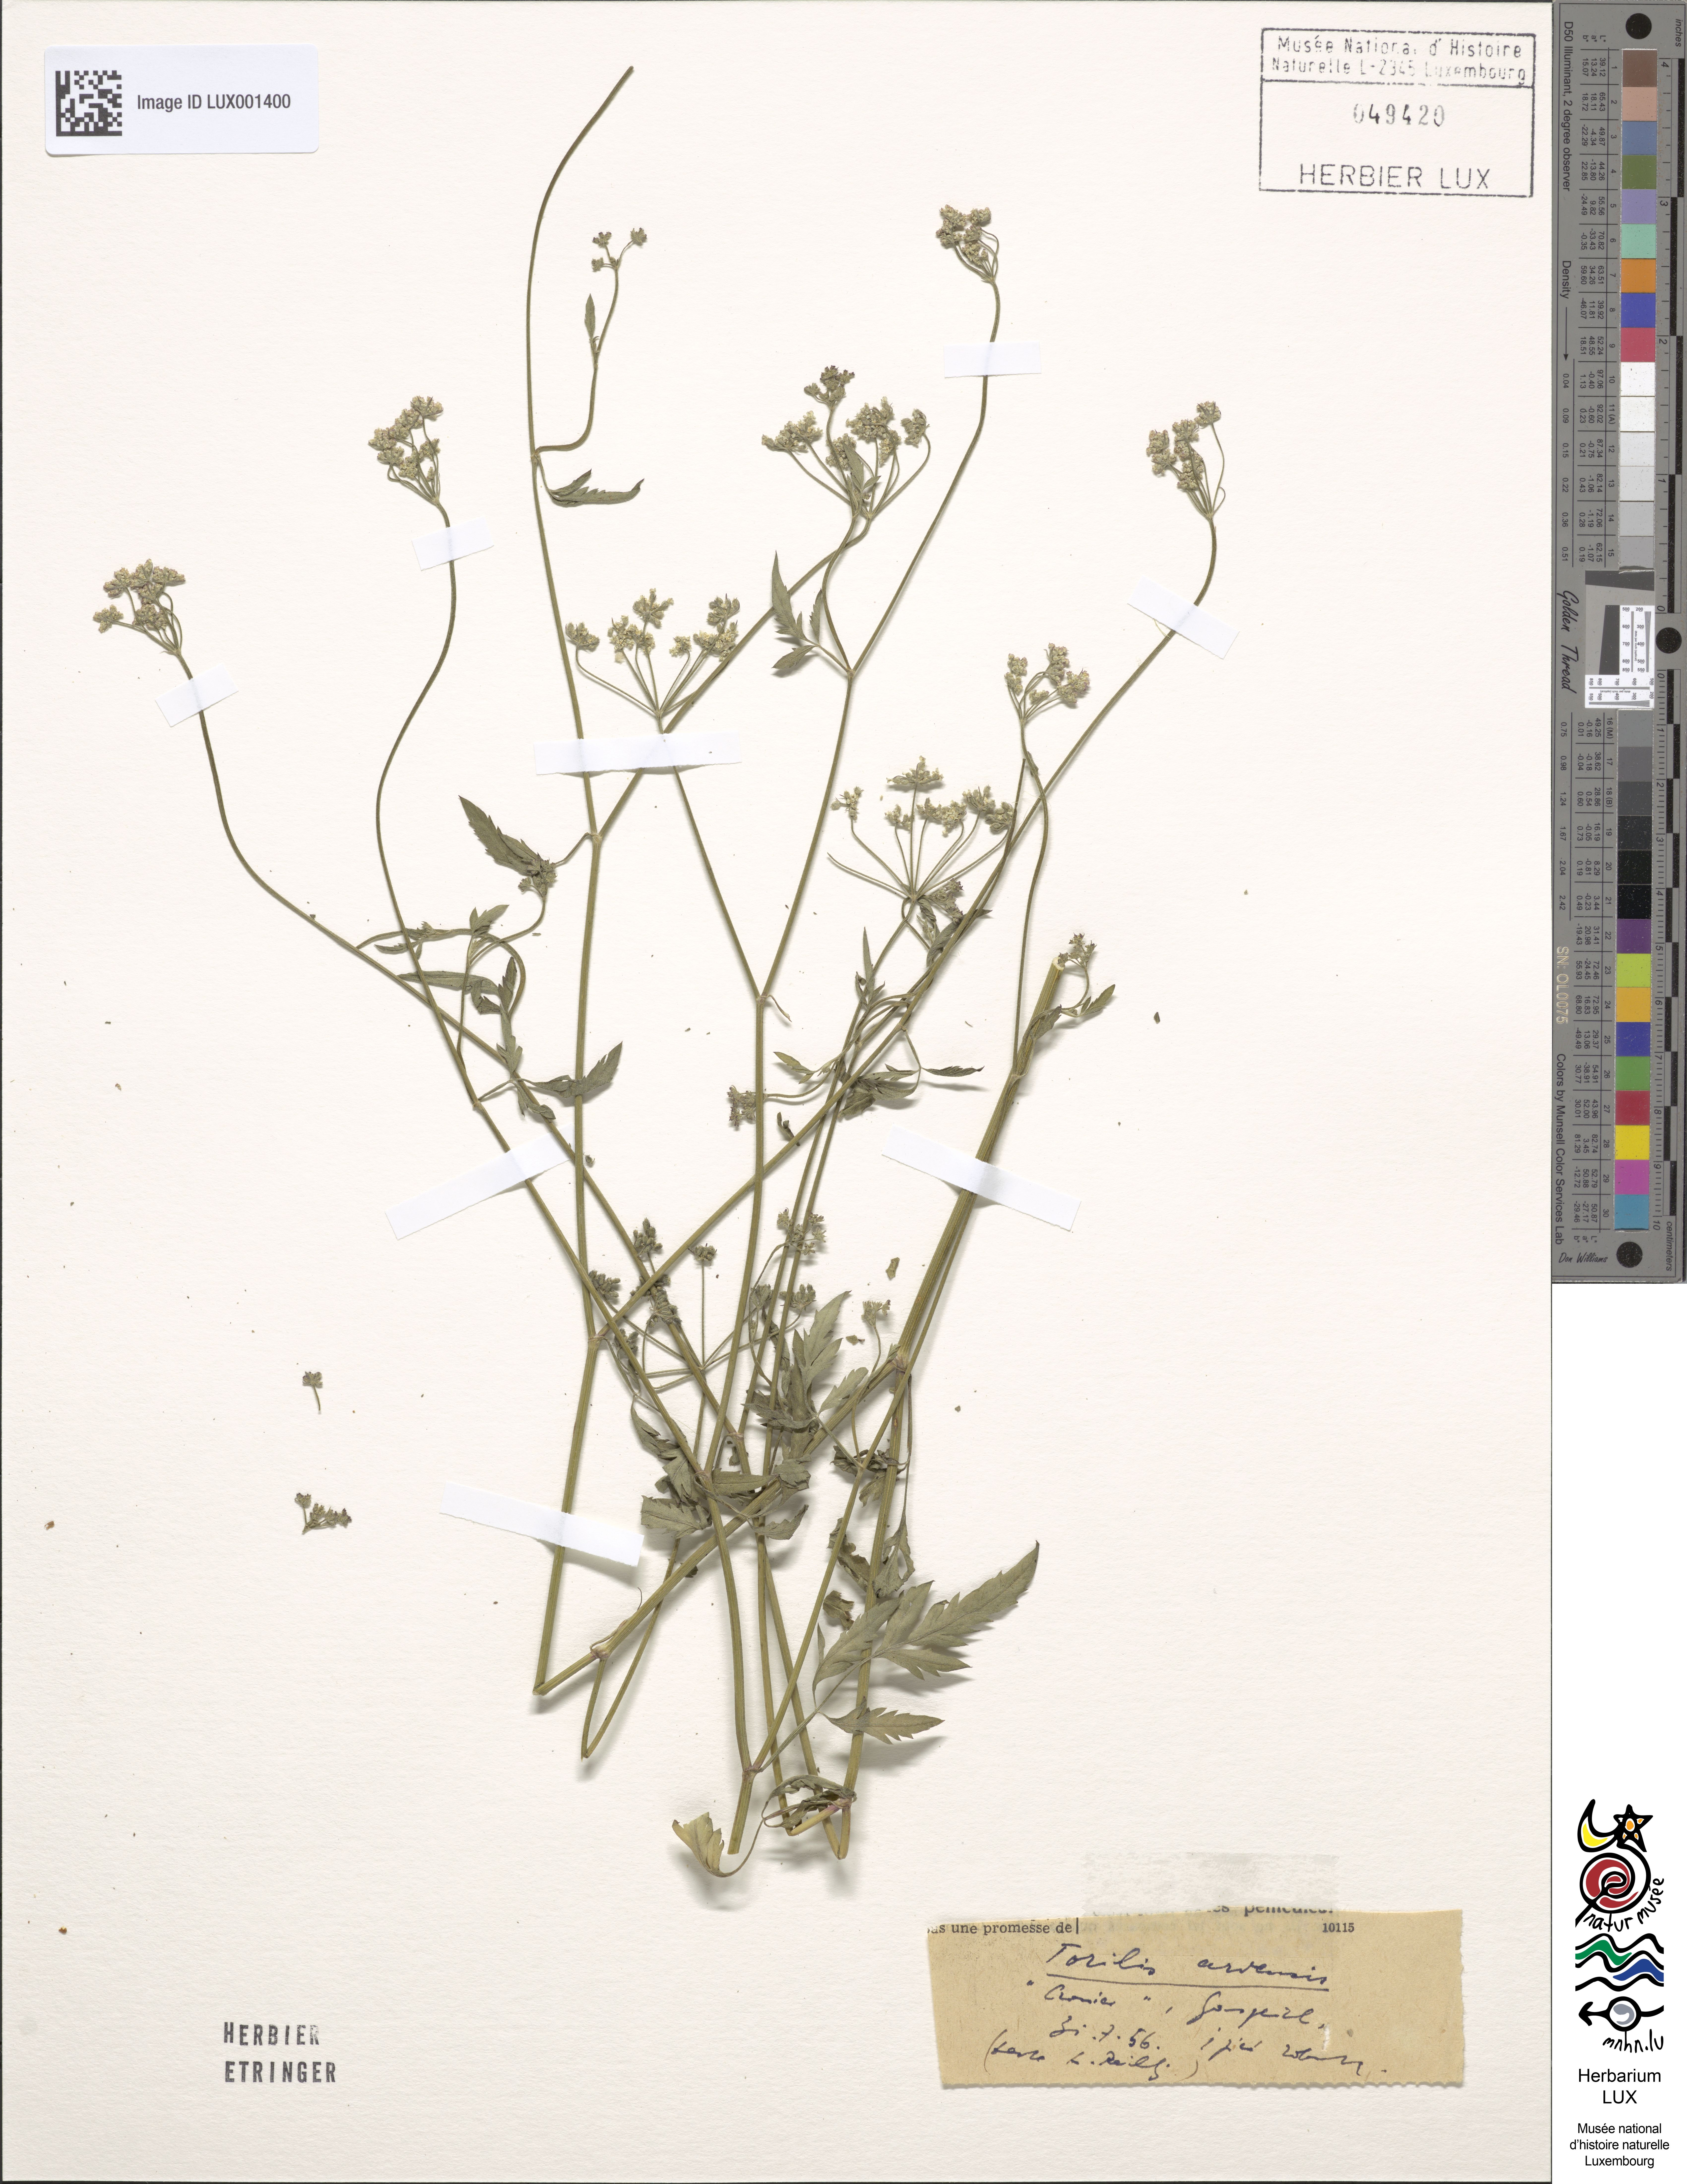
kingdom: Plantae
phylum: Tracheophyta
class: Magnoliopsida
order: Apiales
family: Apiaceae
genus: Torilis
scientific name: Torilis arvensis
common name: Spreading hedge-parsley
